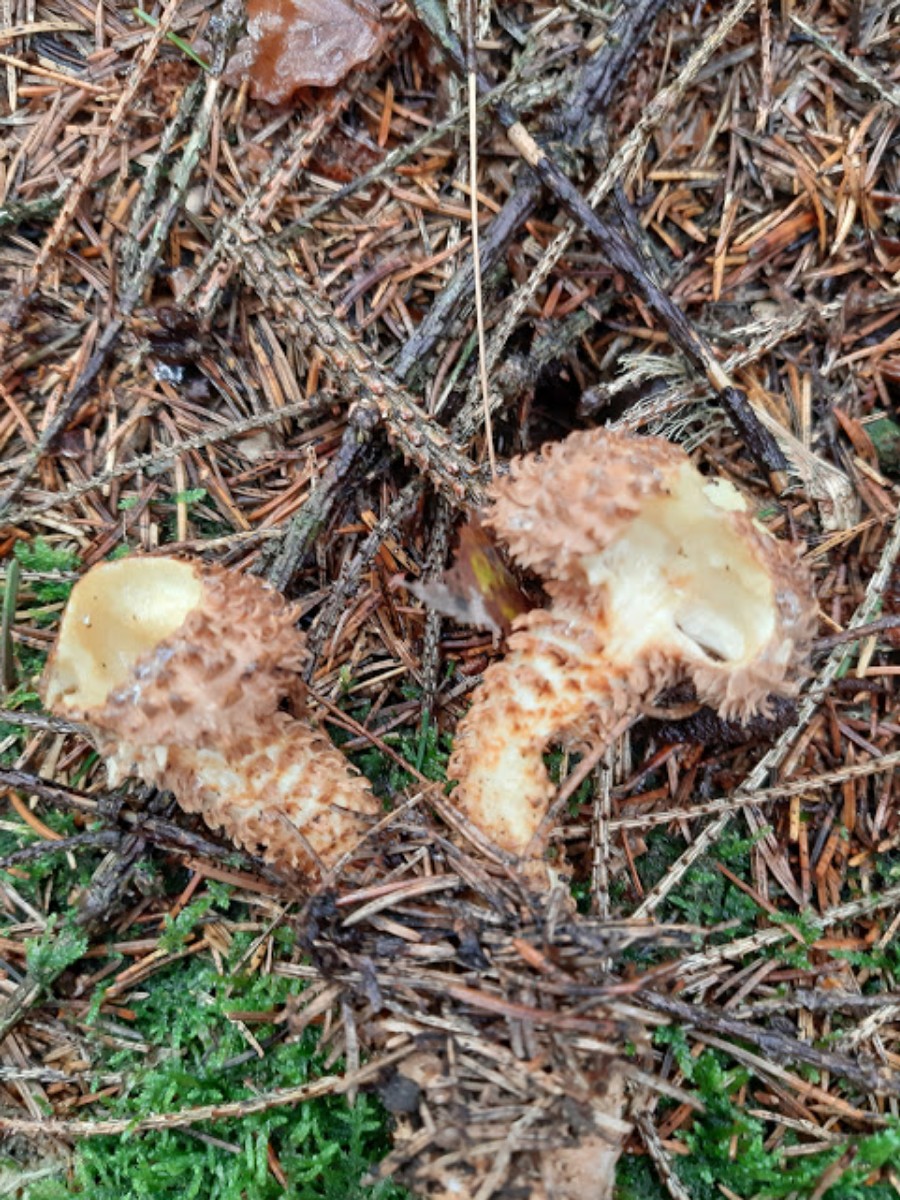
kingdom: Fungi
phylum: Basidiomycota
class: Agaricomycetes
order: Agaricales
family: Strophariaceae
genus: Pholiota
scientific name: Pholiota squarrosa
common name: krumskællet skælhat
